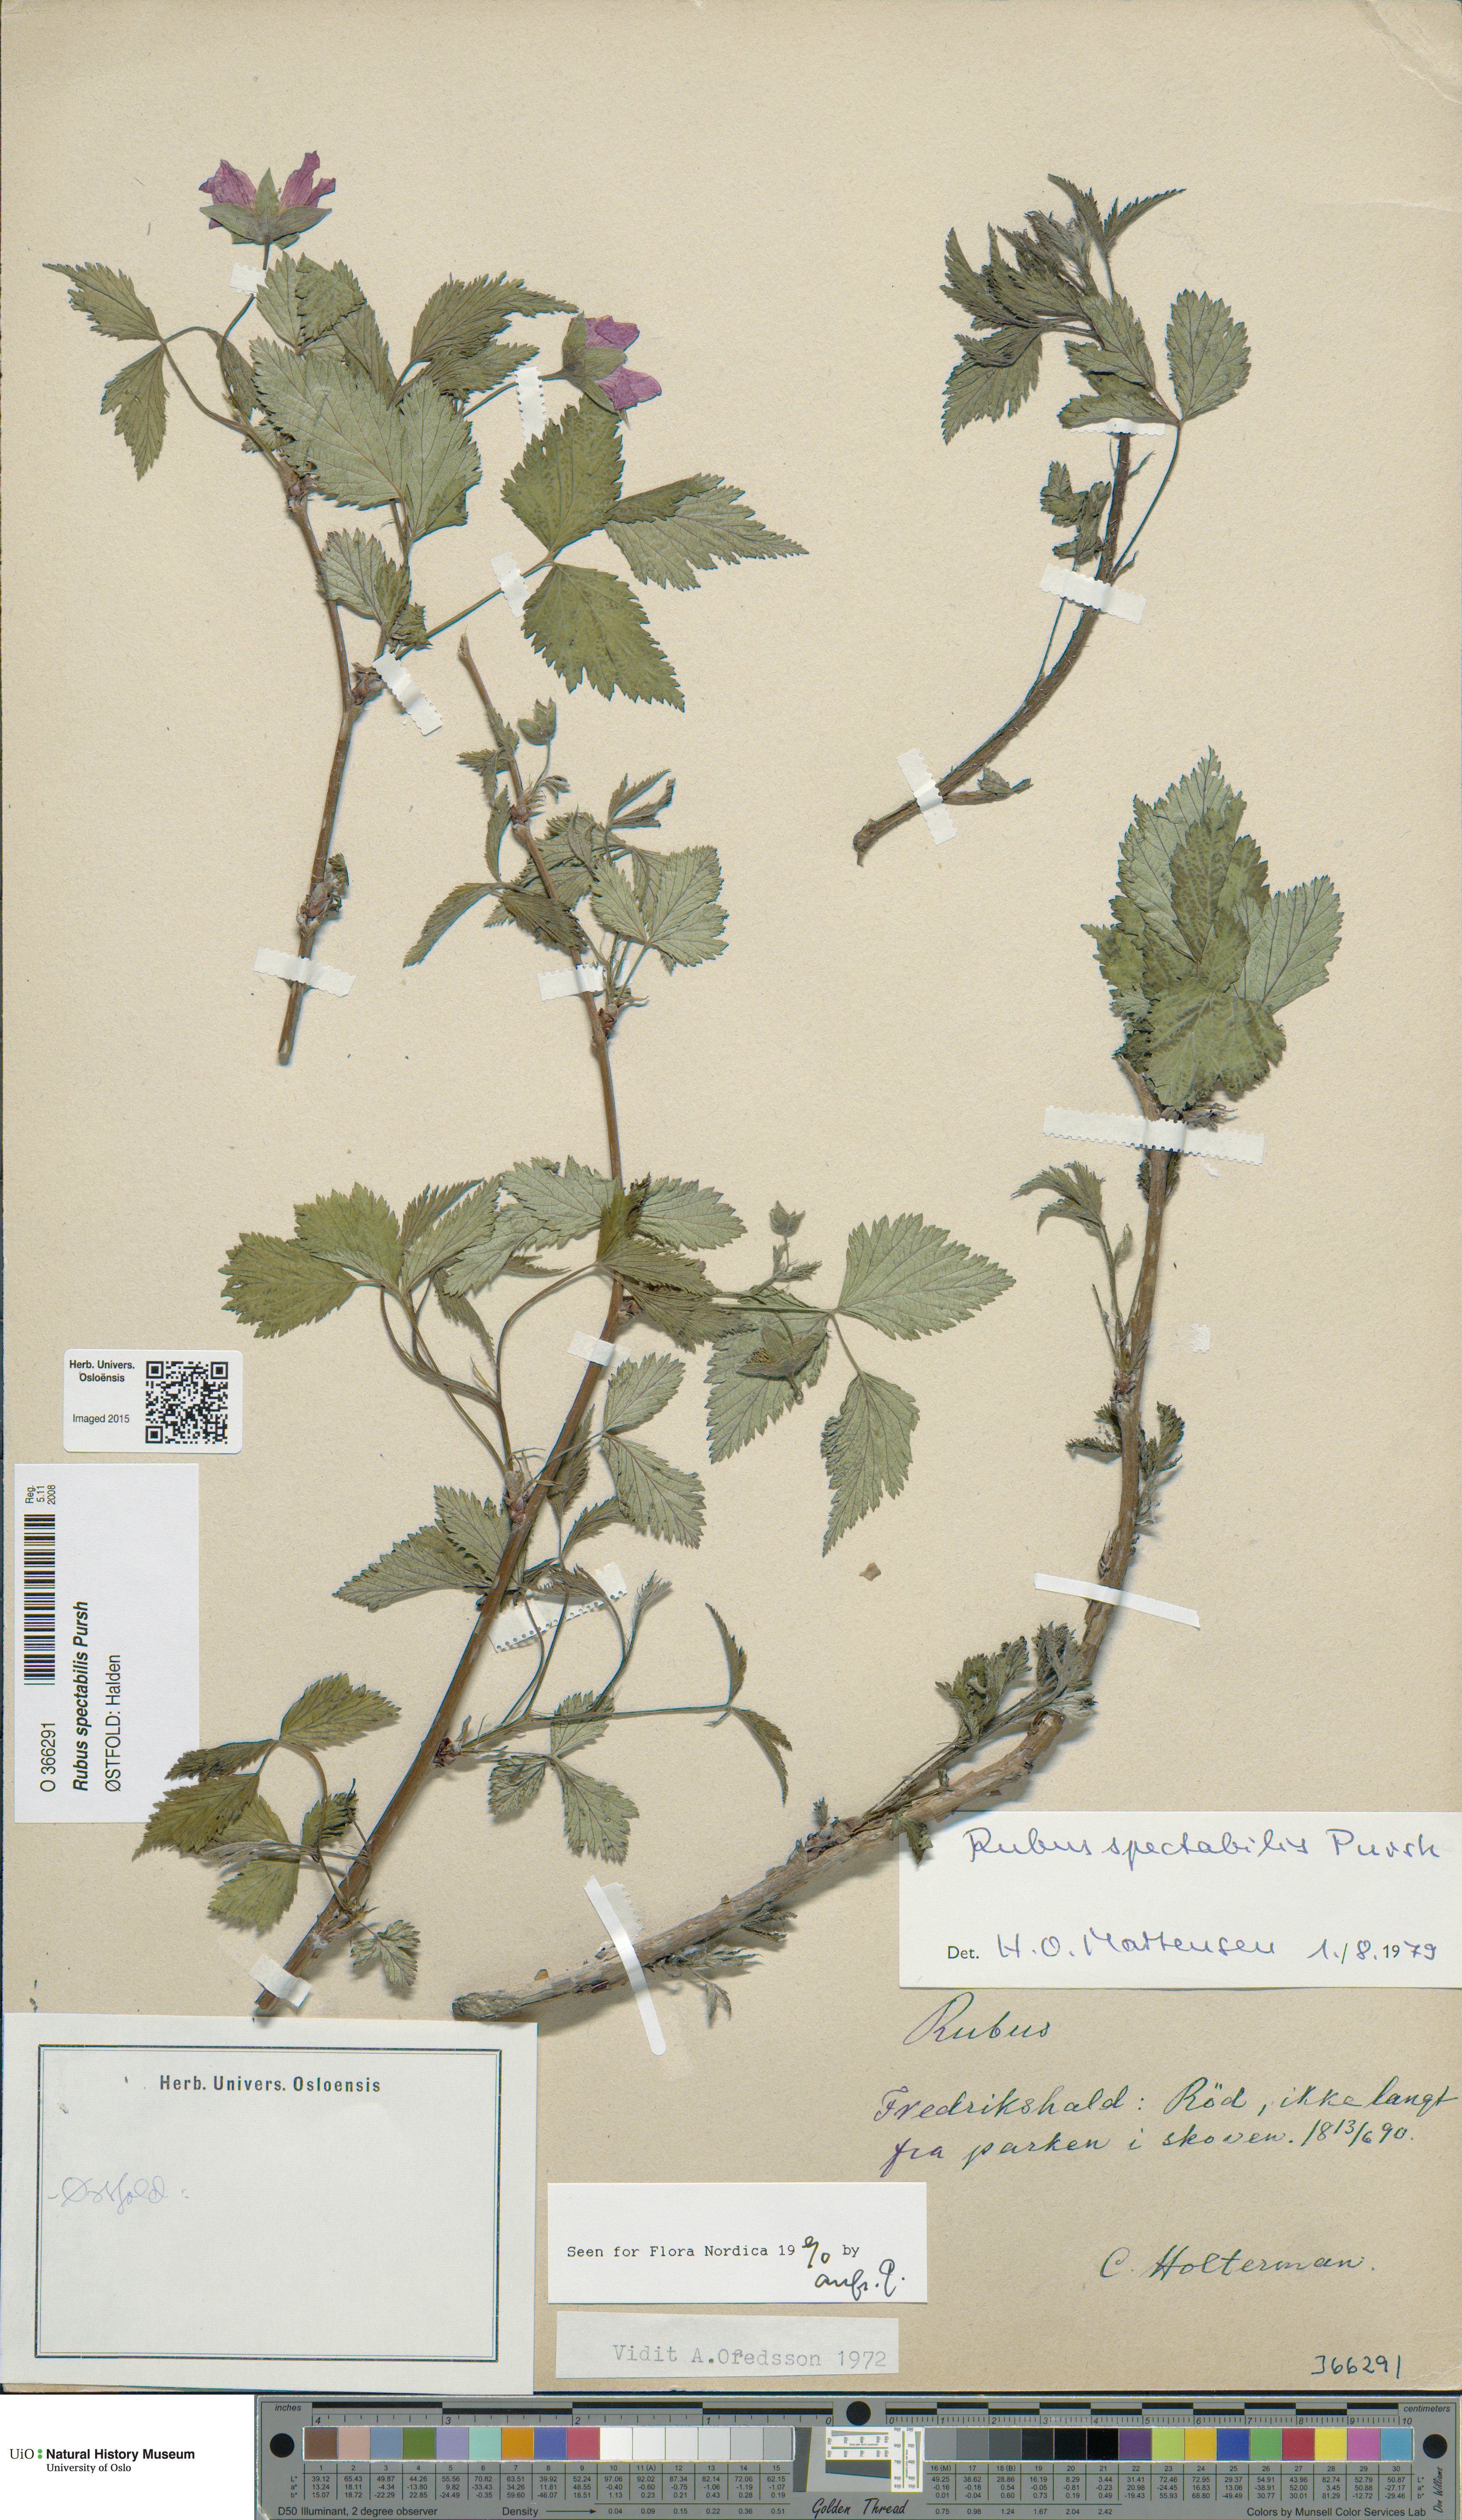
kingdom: Plantae
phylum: Tracheophyta
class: Magnoliopsida
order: Rosales
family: Rosaceae
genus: Rubus
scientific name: Rubus spectabilis
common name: Salmonberry
